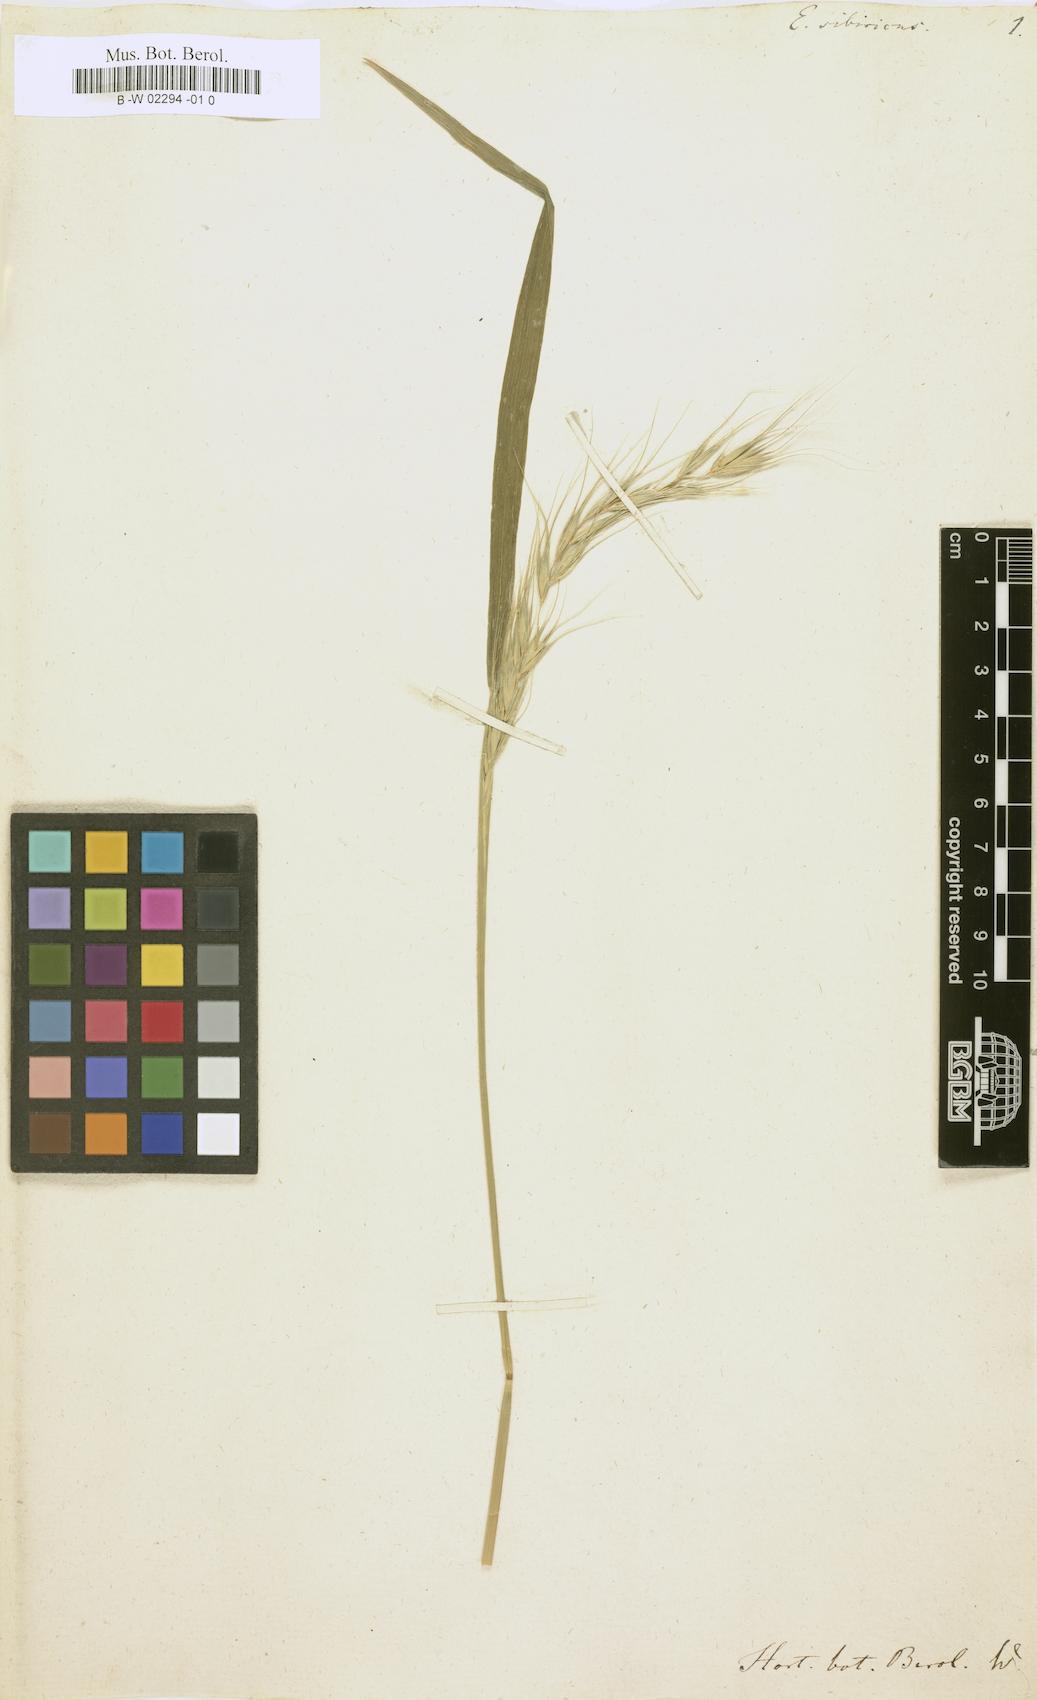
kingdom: Plantae
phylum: Tracheophyta
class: Liliopsida
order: Poales
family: Poaceae
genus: Elymus
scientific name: Elymus sibiricus
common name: Siberian wildrye
